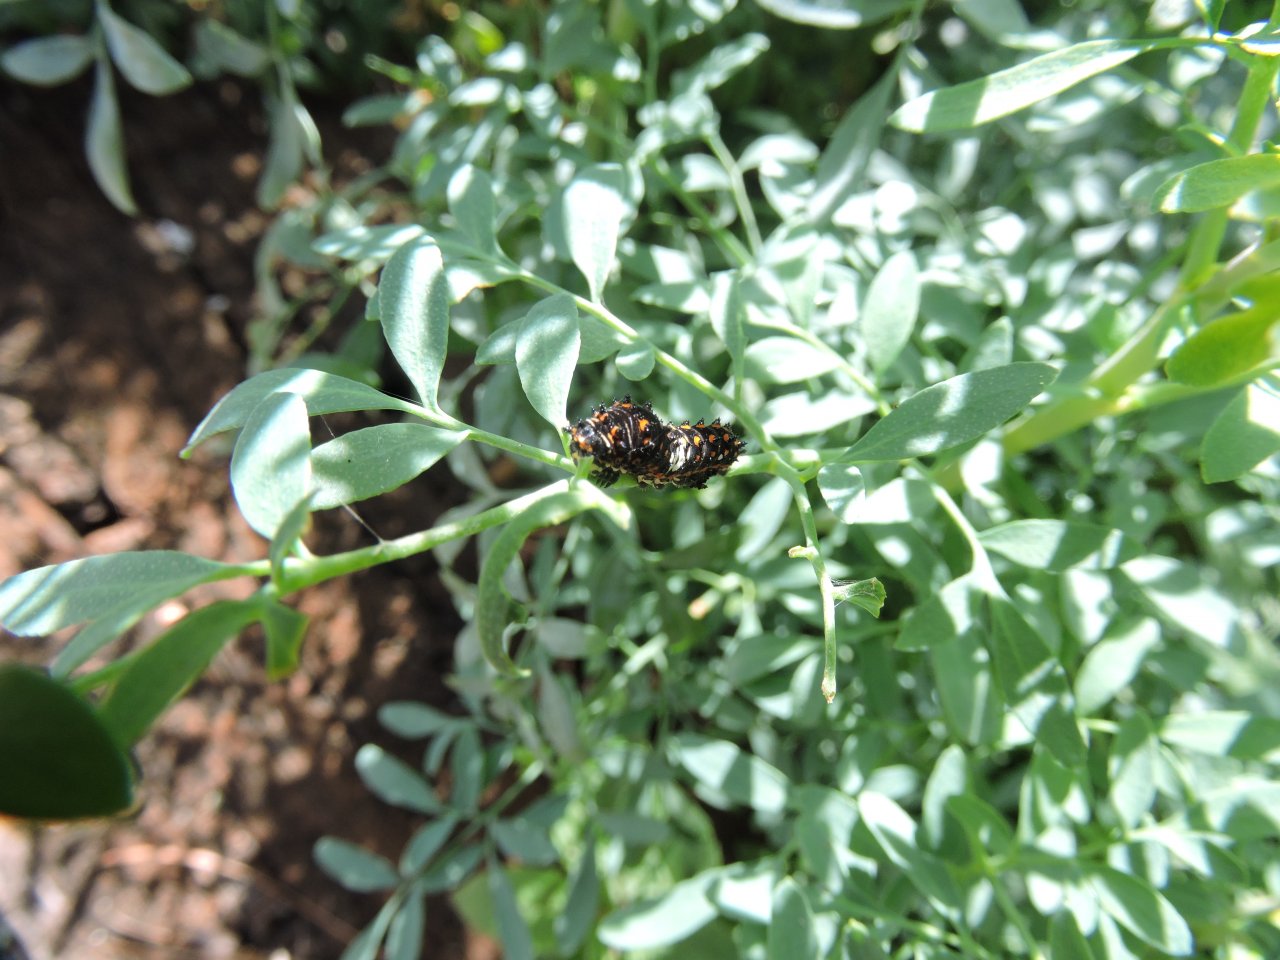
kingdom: Animalia
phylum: Arthropoda
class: Insecta
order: Lepidoptera
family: Papilionidae
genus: Papilio
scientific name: Papilio polyxenes
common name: Black Swallowtail
